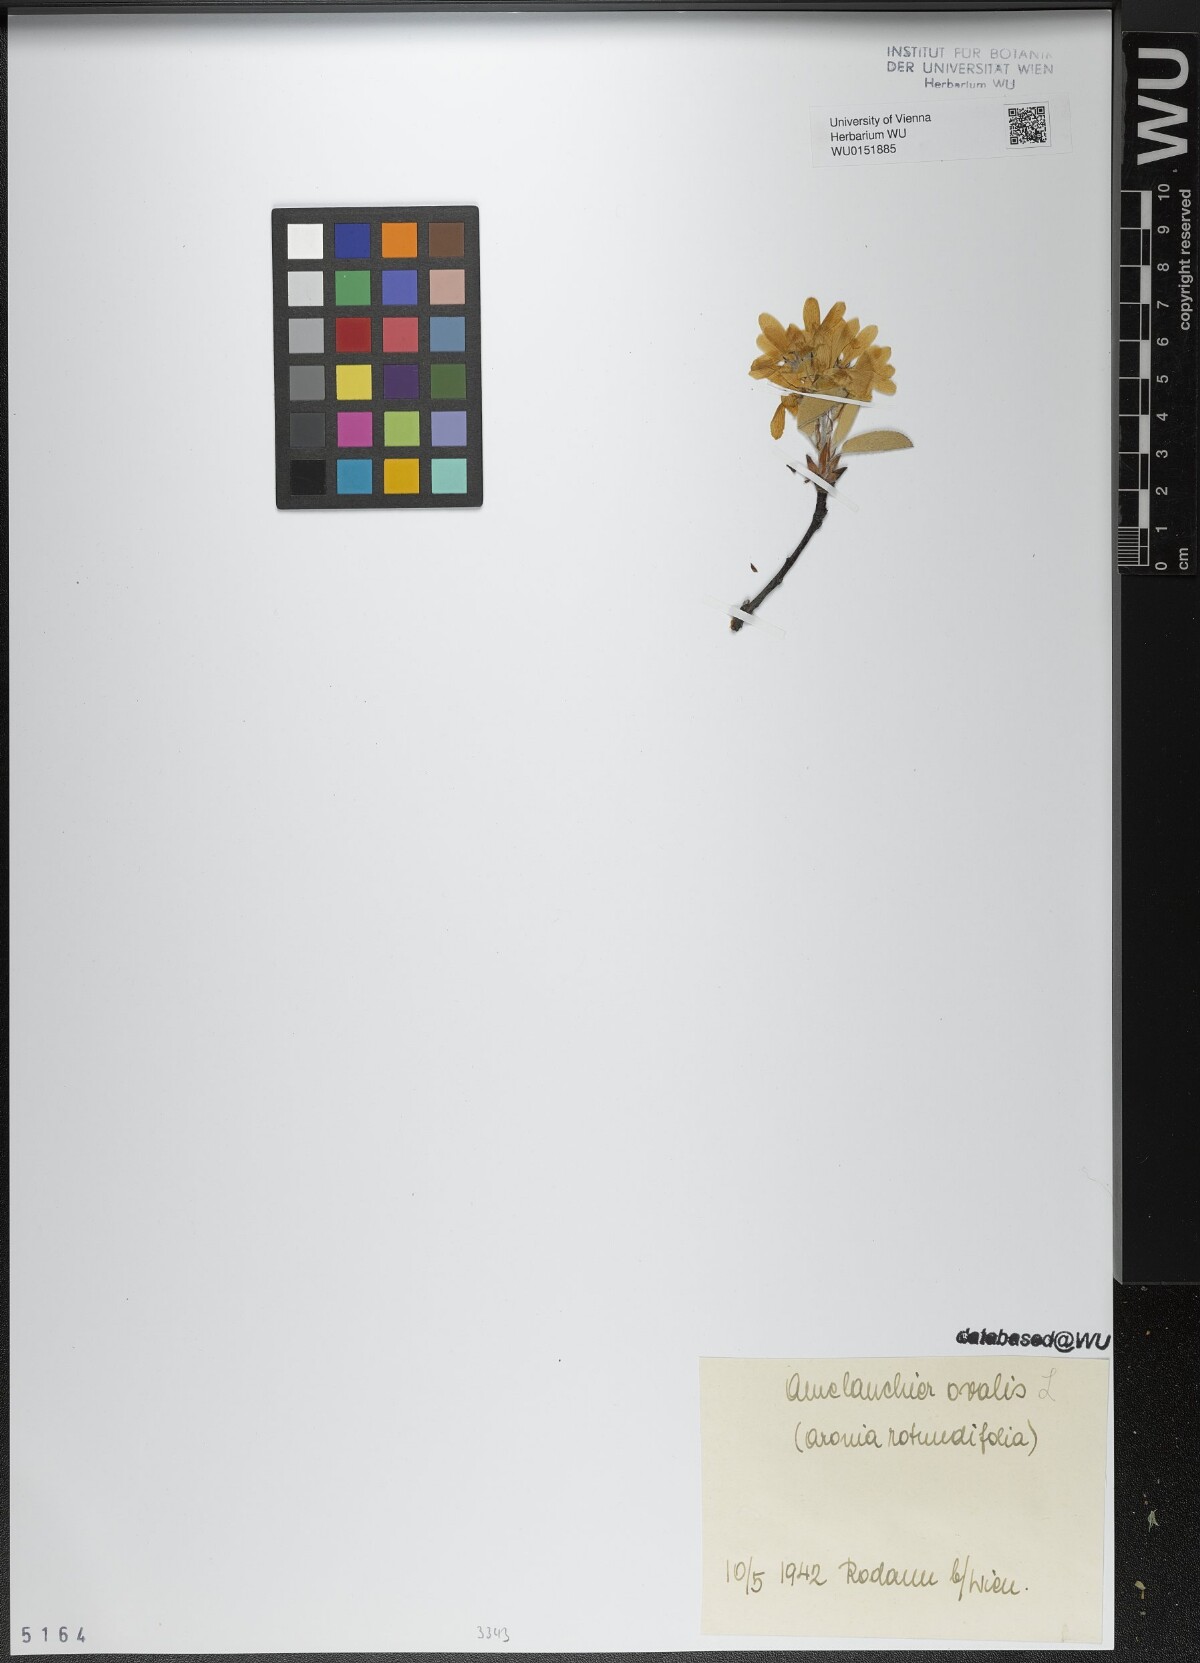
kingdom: Plantae
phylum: Tracheophyta
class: Magnoliopsida
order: Rosales
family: Rosaceae
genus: Amelanchier
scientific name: Amelanchier ovalis
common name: Serviceberry
